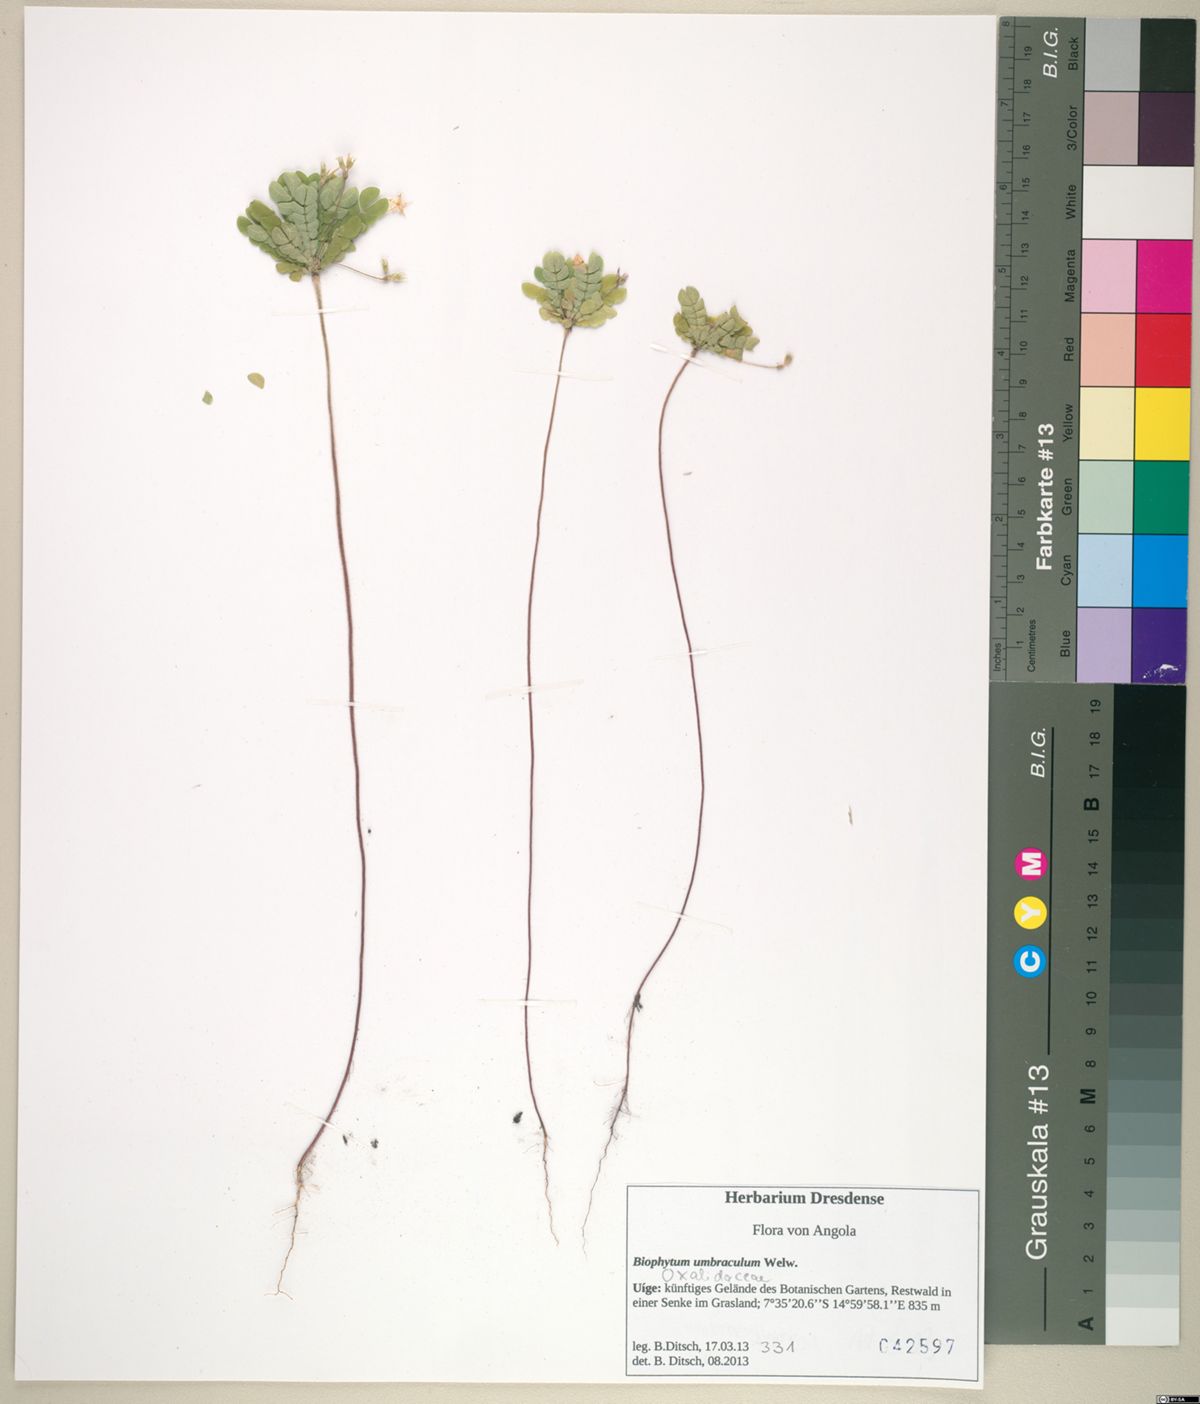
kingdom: Plantae
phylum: Tracheophyta
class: Magnoliopsida
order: Oxalidales
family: Oxalidaceae
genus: Biophytum
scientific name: Biophytum umbraculum
